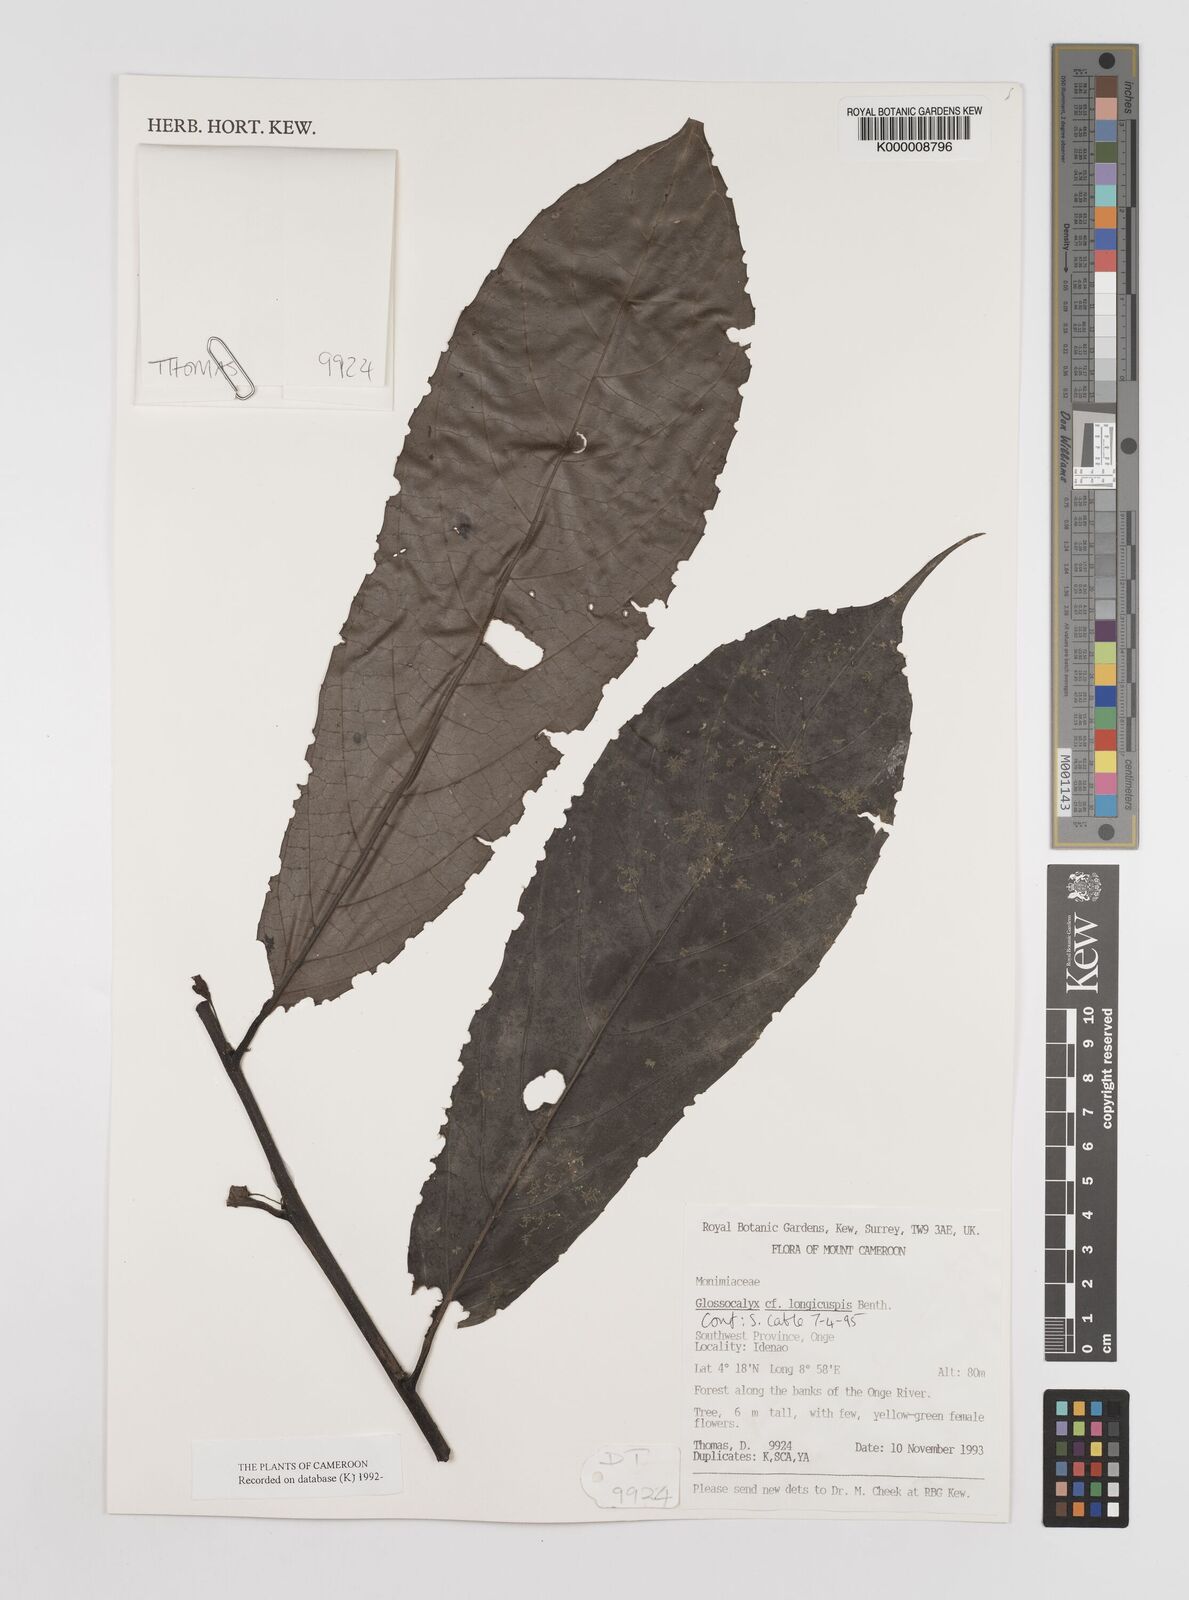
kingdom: Plantae
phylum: Tracheophyta
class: Magnoliopsida
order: Laurales
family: Siparunaceae
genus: Glossocalyx
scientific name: Glossocalyx longicuspis
